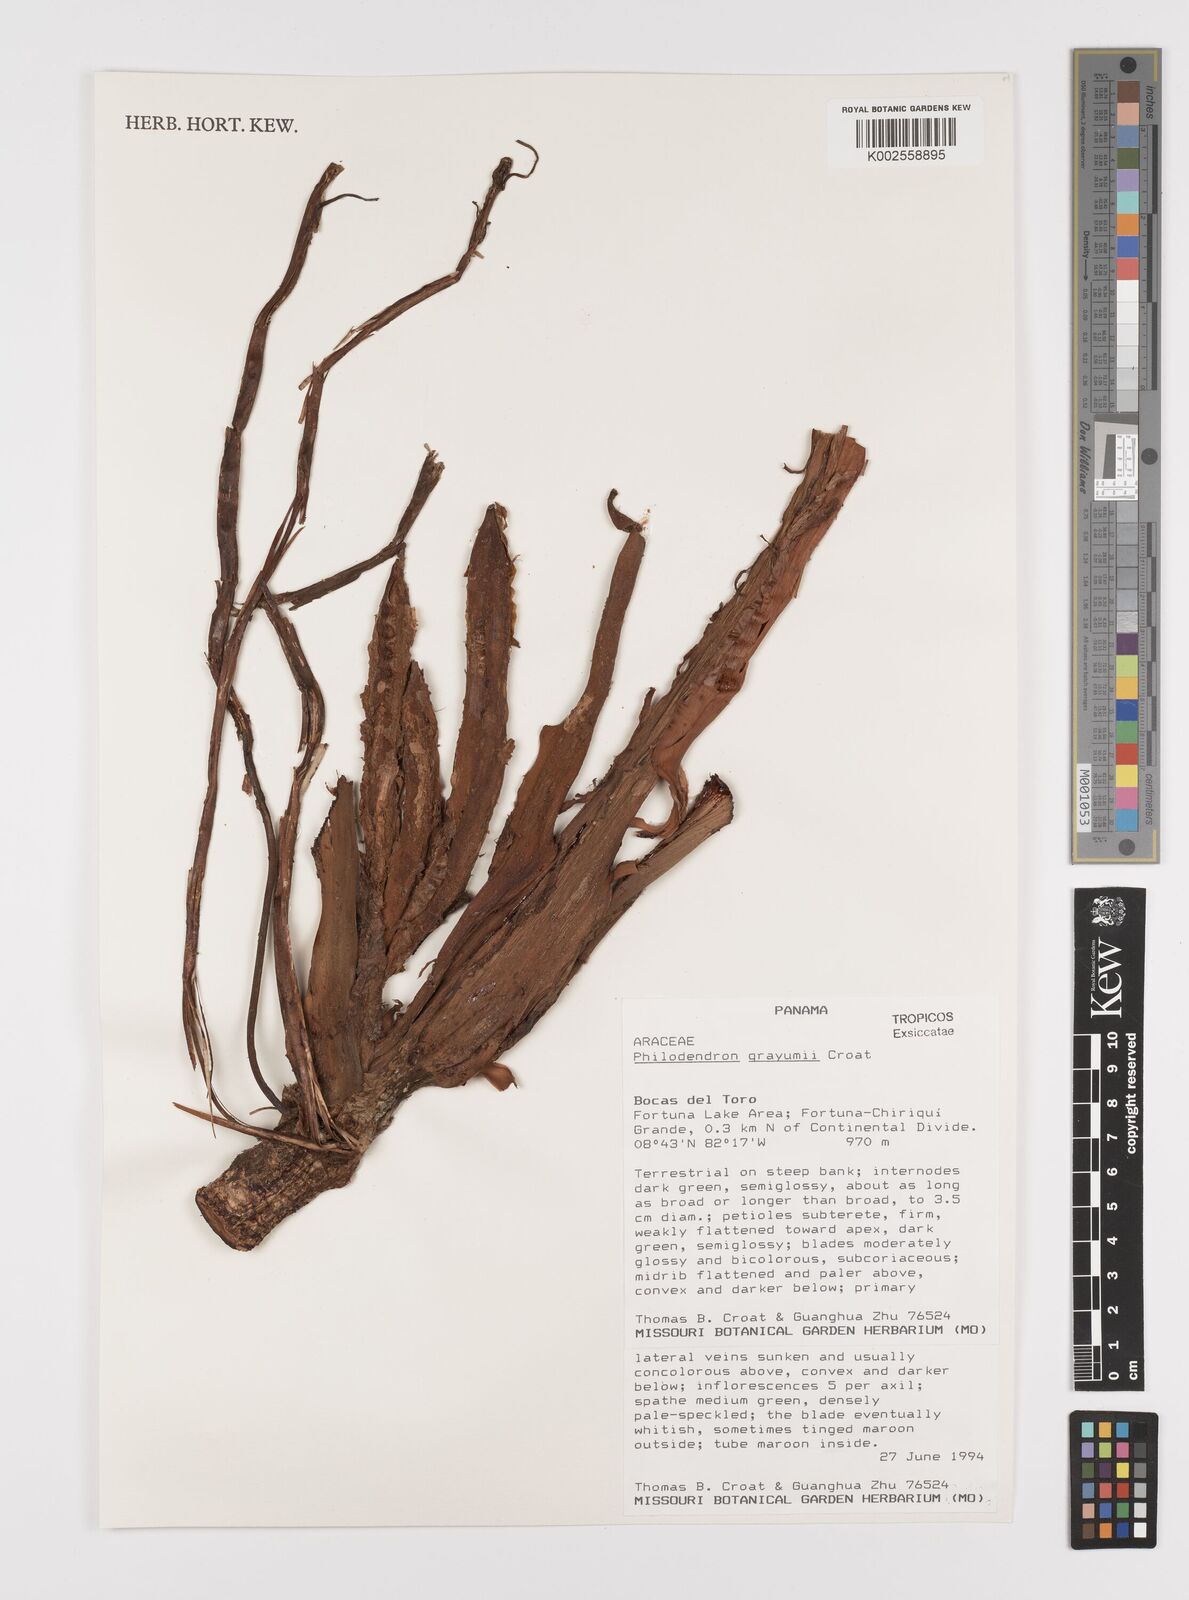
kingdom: Plantae
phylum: Tracheophyta
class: Liliopsida
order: Alismatales
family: Araceae
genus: Philodendron
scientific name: Philodendron grayumii
